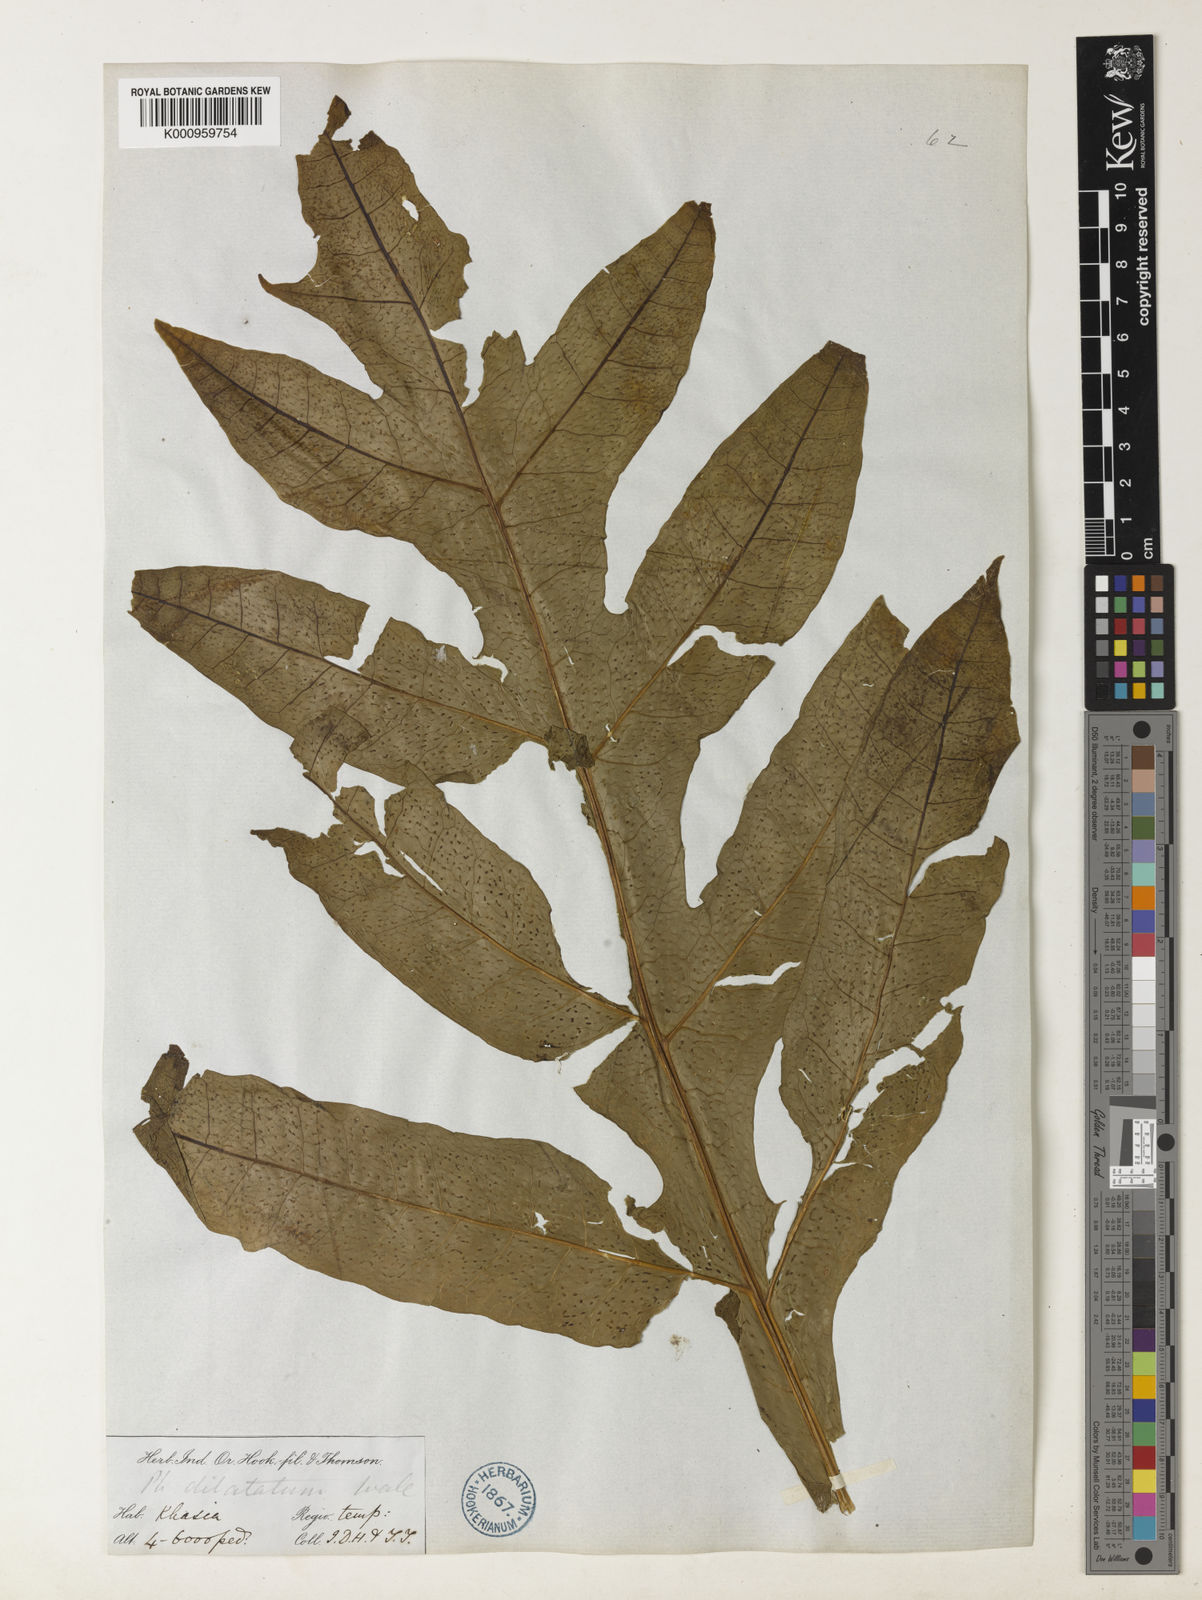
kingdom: Plantae
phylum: Tracheophyta
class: Polypodiopsida
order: Polypodiales
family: Polypodiaceae
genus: Leptochilus
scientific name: Leptochilus insignis
